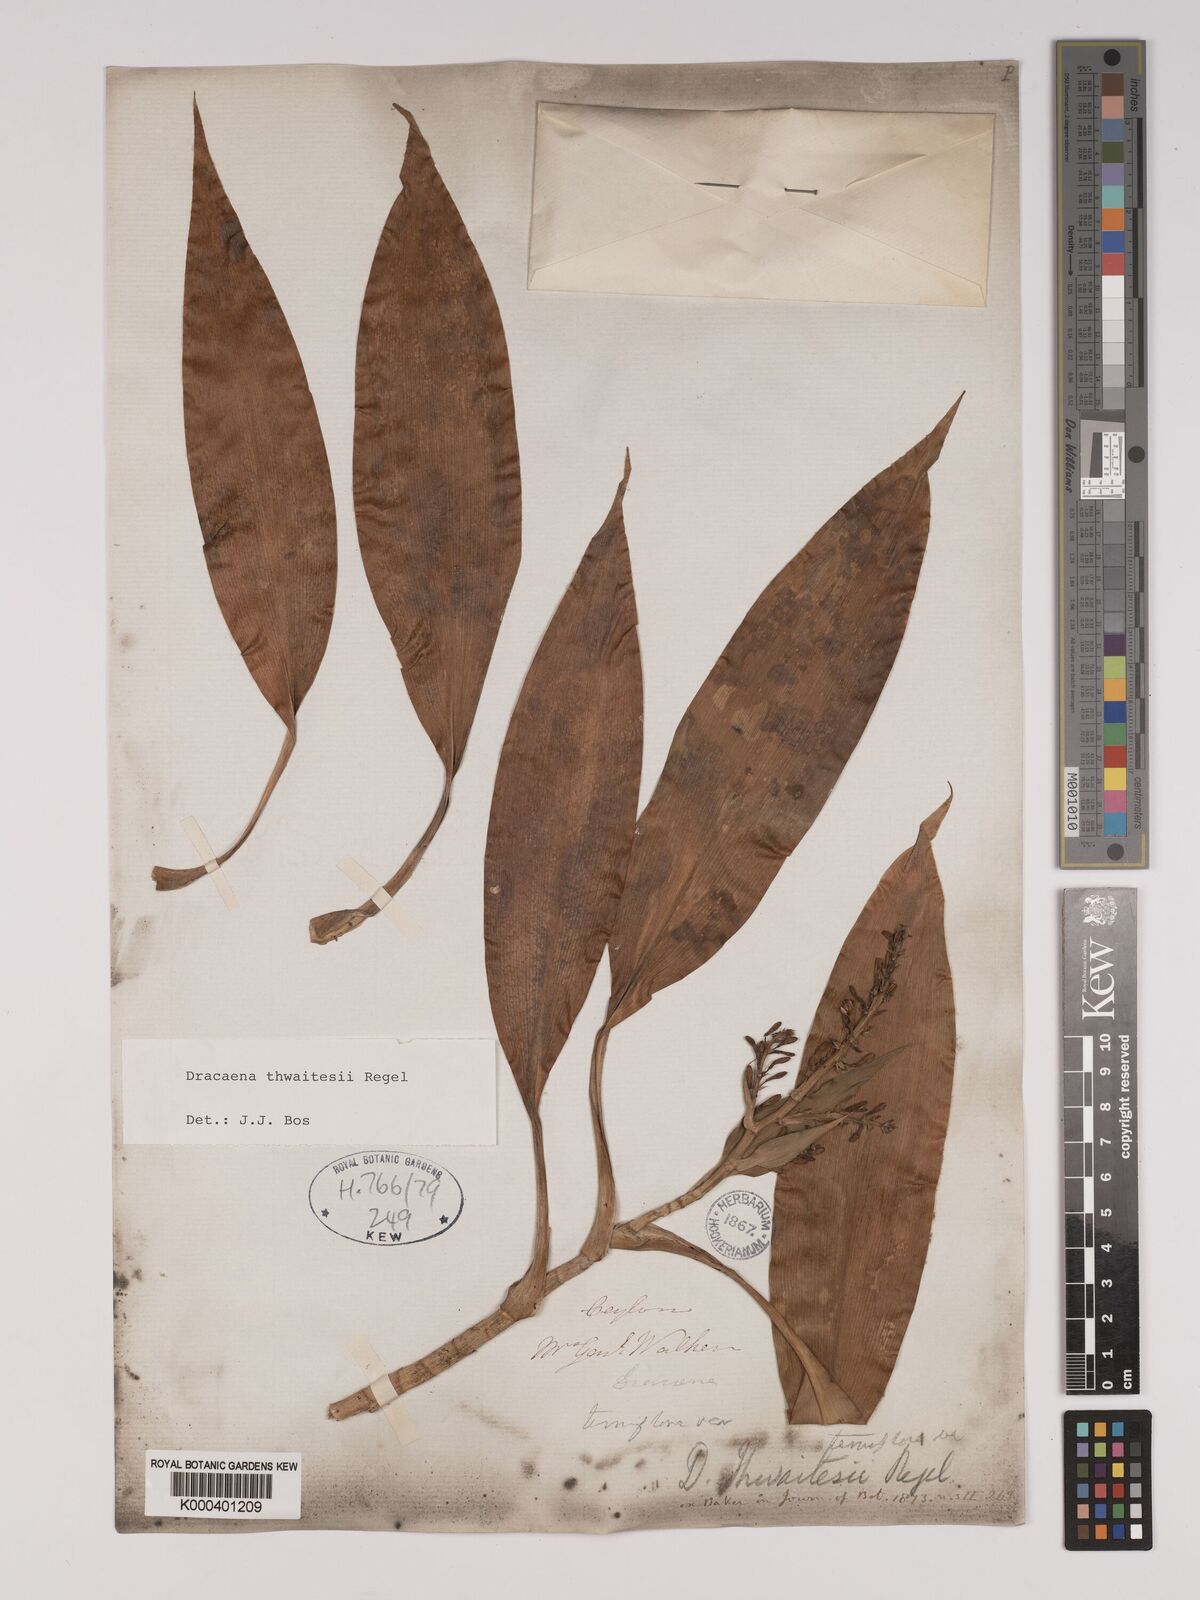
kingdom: Plantae
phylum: Tracheophyta
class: Liliopsida
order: Asparagales
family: Asparagaceae
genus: Dracaena
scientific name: Dracaena thwaitesii
